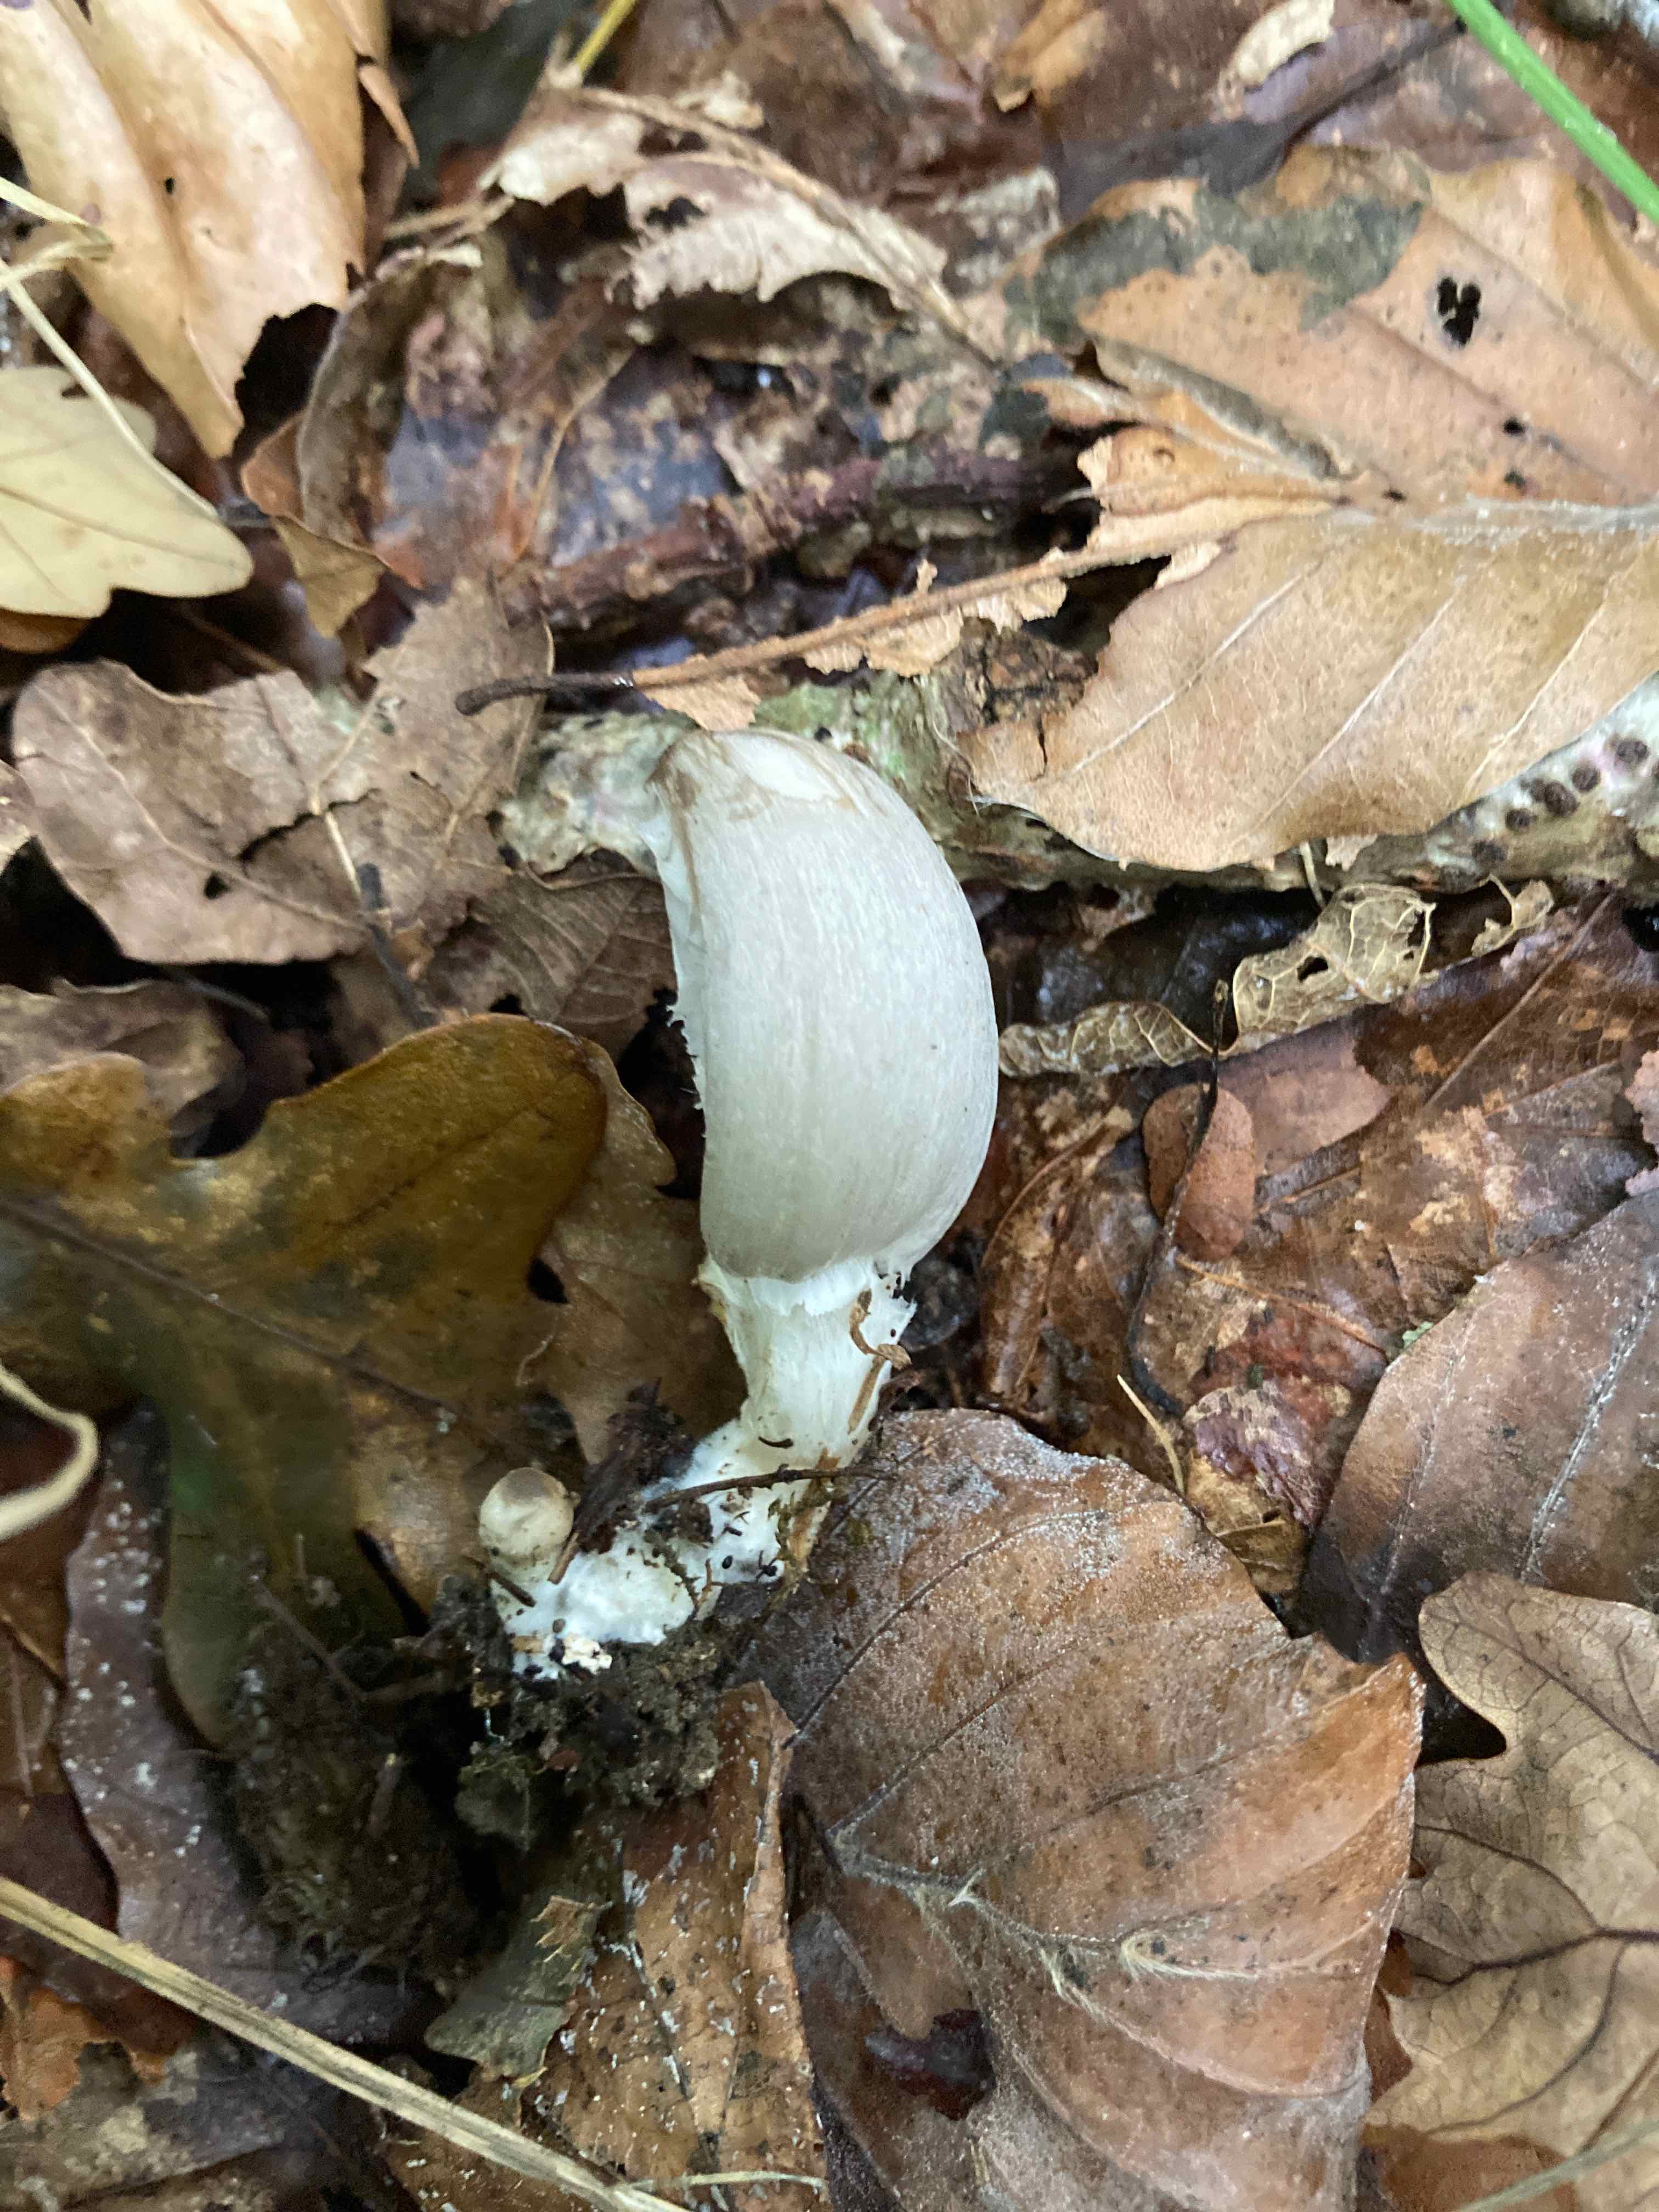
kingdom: Fungi
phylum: Basidiomycota
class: Agaricomycetes
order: Agaricales
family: Psathyrellaceae
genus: Coprinopsis
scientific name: Coprinopsis acuminata
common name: kegle-blækhat
